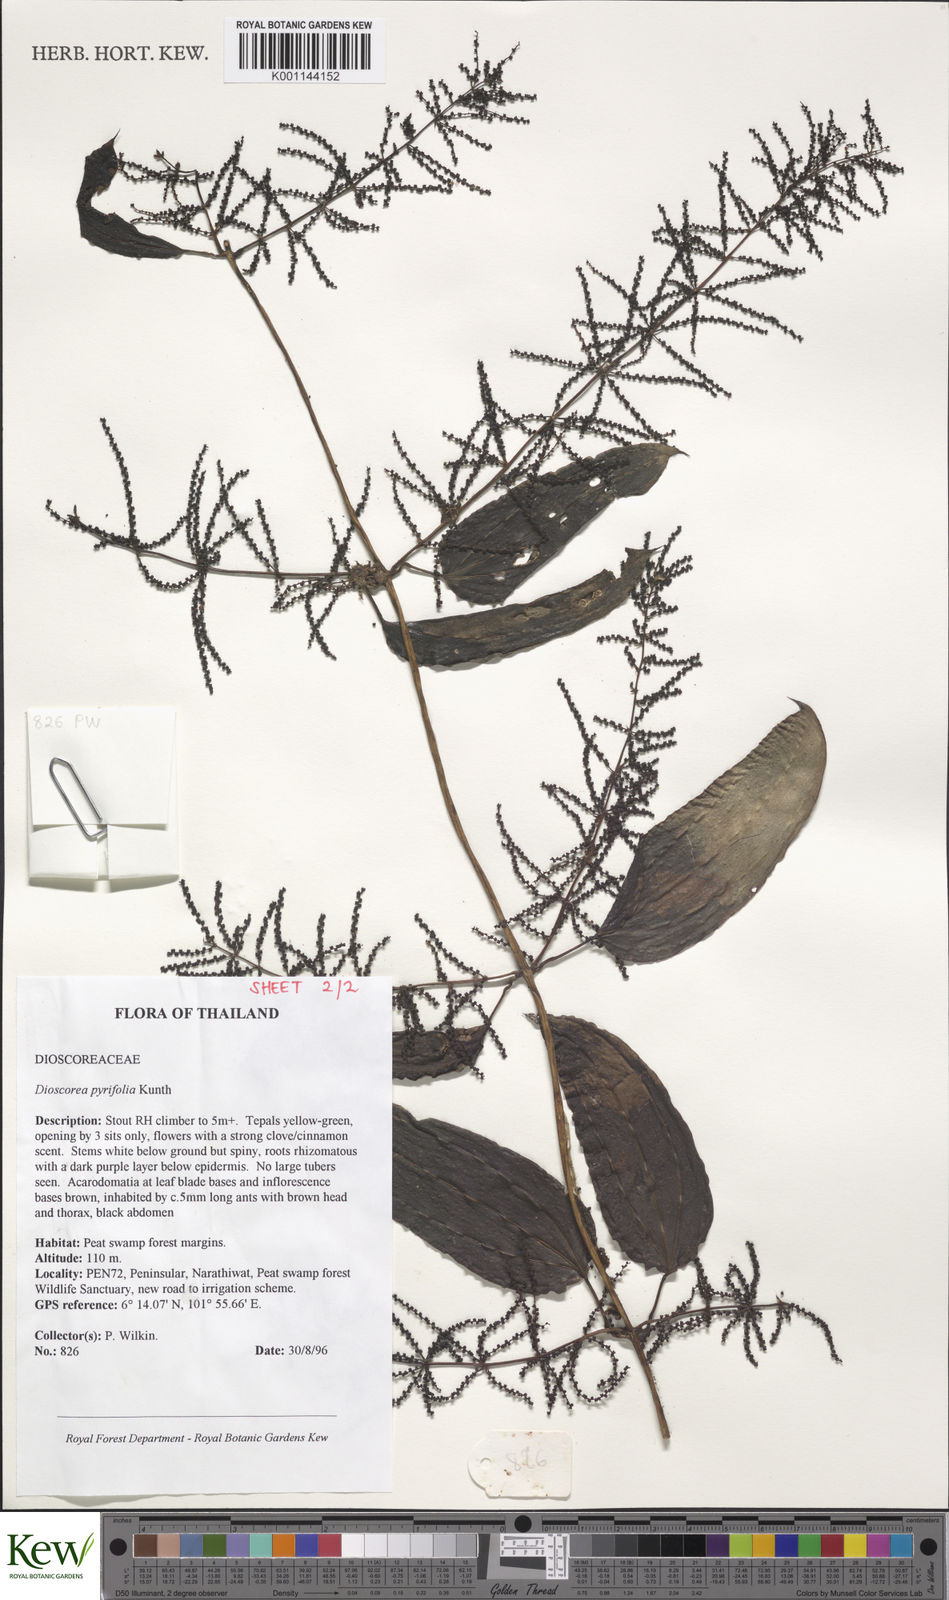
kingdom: Plantae
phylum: Tracheophyta
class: Liliopsida
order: Dioscoreales
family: Dioscoreaceae
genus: Dioscorea
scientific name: Dioscorea pyrifolia
